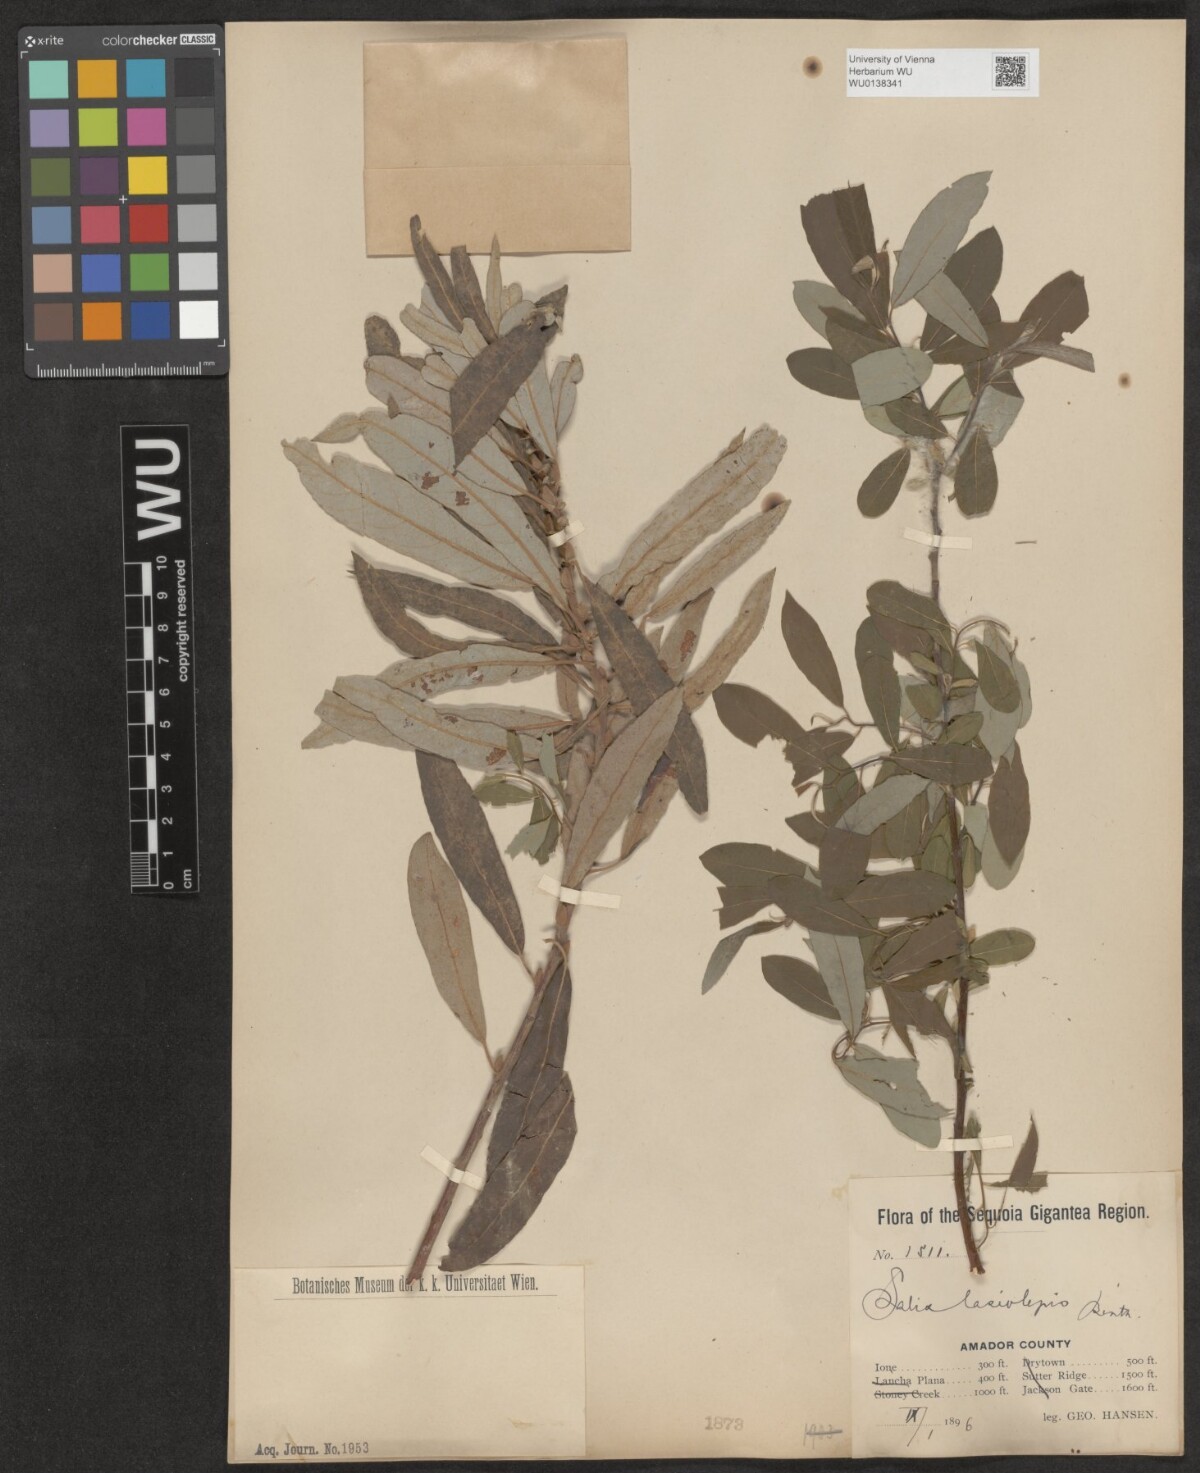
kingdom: Plantae
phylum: Tracheophyta
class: Magnoliopsida
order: Malpighiales
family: Salicaceae
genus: Salix
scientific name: Salix lasiolepis
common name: Arroyo willow
